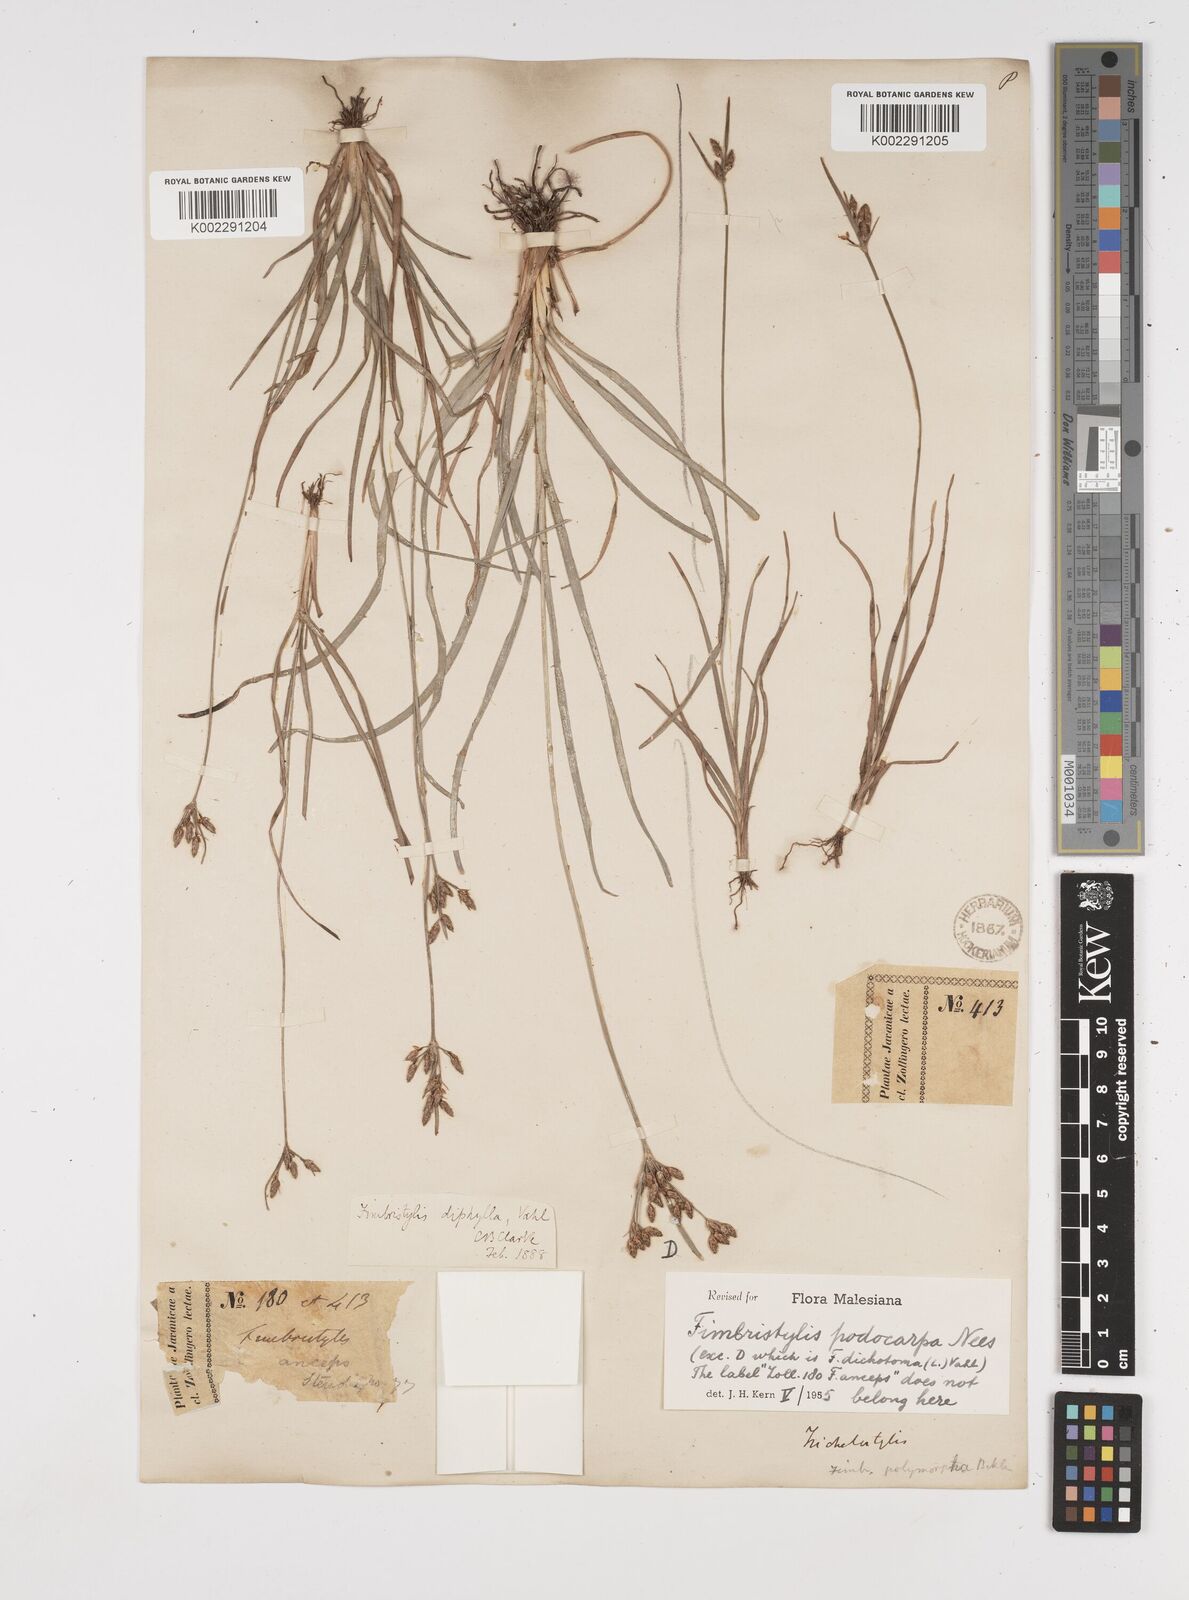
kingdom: Plantae
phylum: Tracheophyta
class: Liliopsida
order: Poales
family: Cyperaceae
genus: Fimbristylis
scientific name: Fimbristylis dichotoma
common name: Forked fimbry
